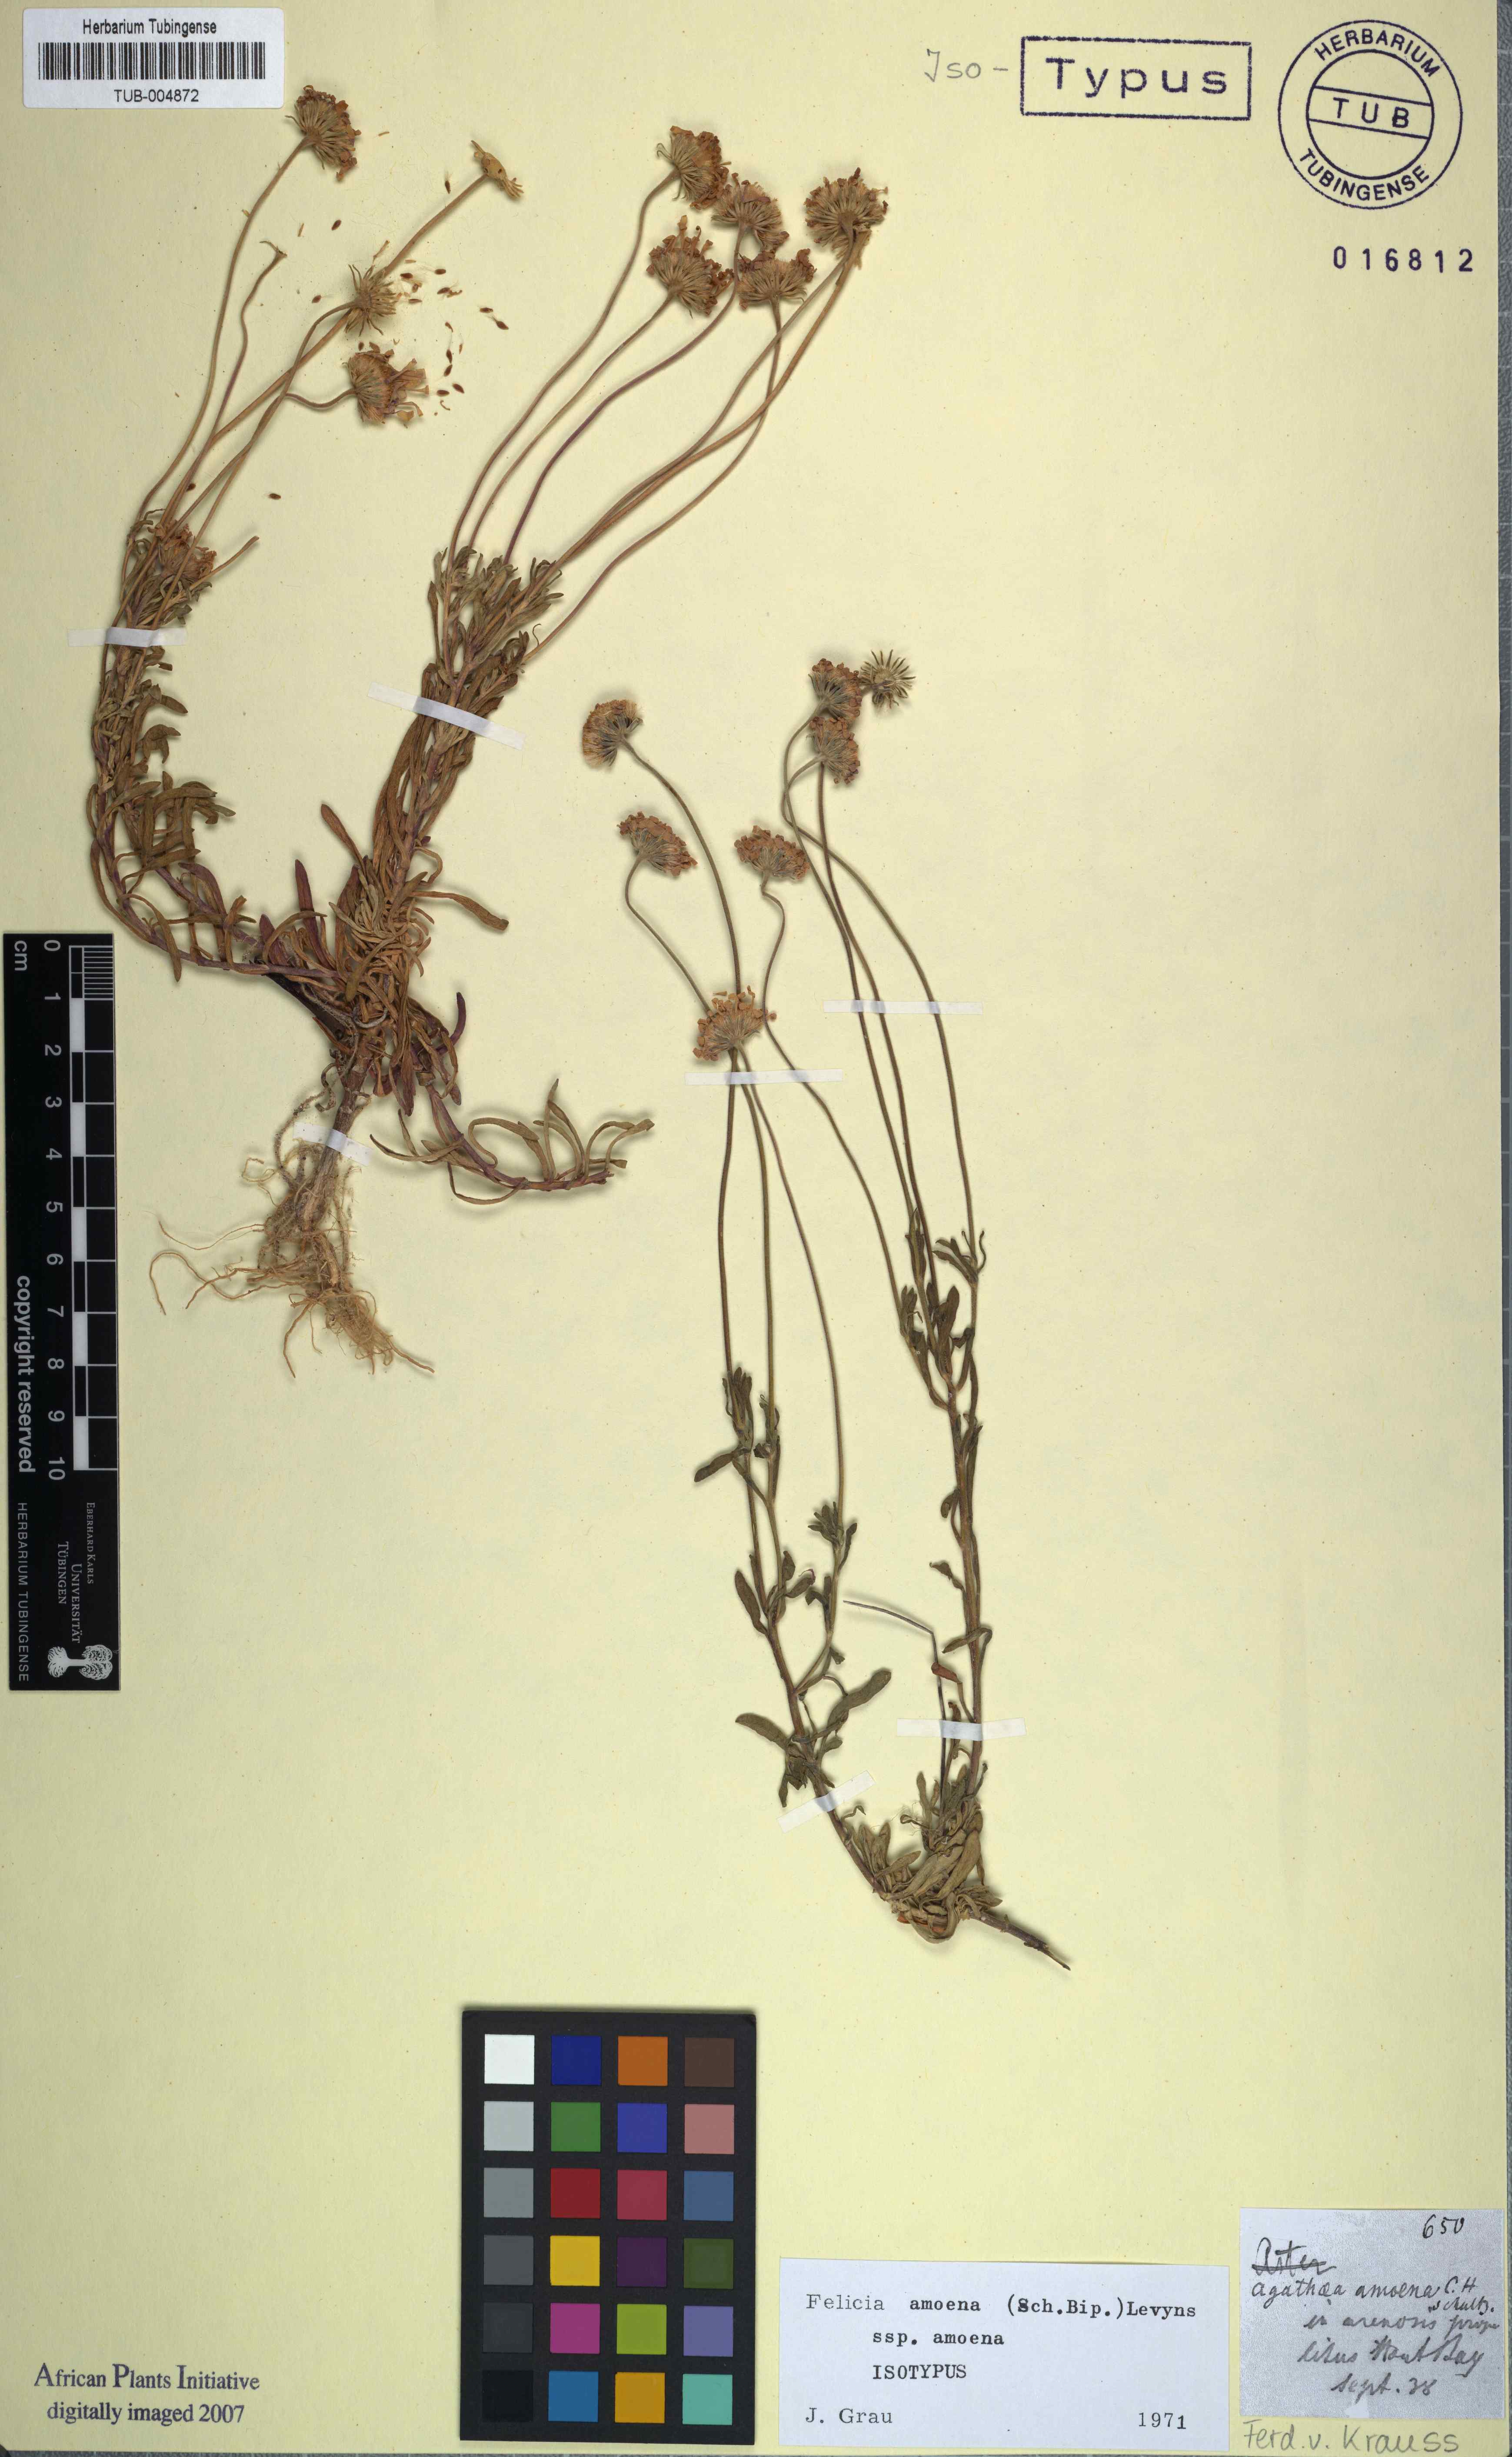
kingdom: Plantae
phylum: Tracheophyta
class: Magnoliopsida
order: Asterales
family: Asteraceae
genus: Felicia
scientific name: Felicia amoena
